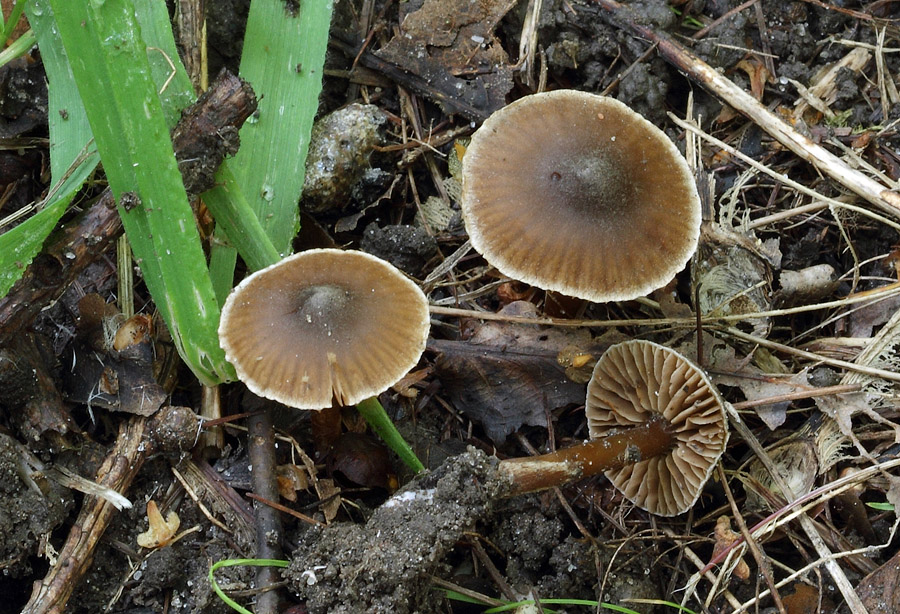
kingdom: Fungi
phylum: Basidiomycota
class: Agaricomycetes
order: Agaricales
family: Cortinariaceae
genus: Cortinarius
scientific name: Cortinarius alboadustus
